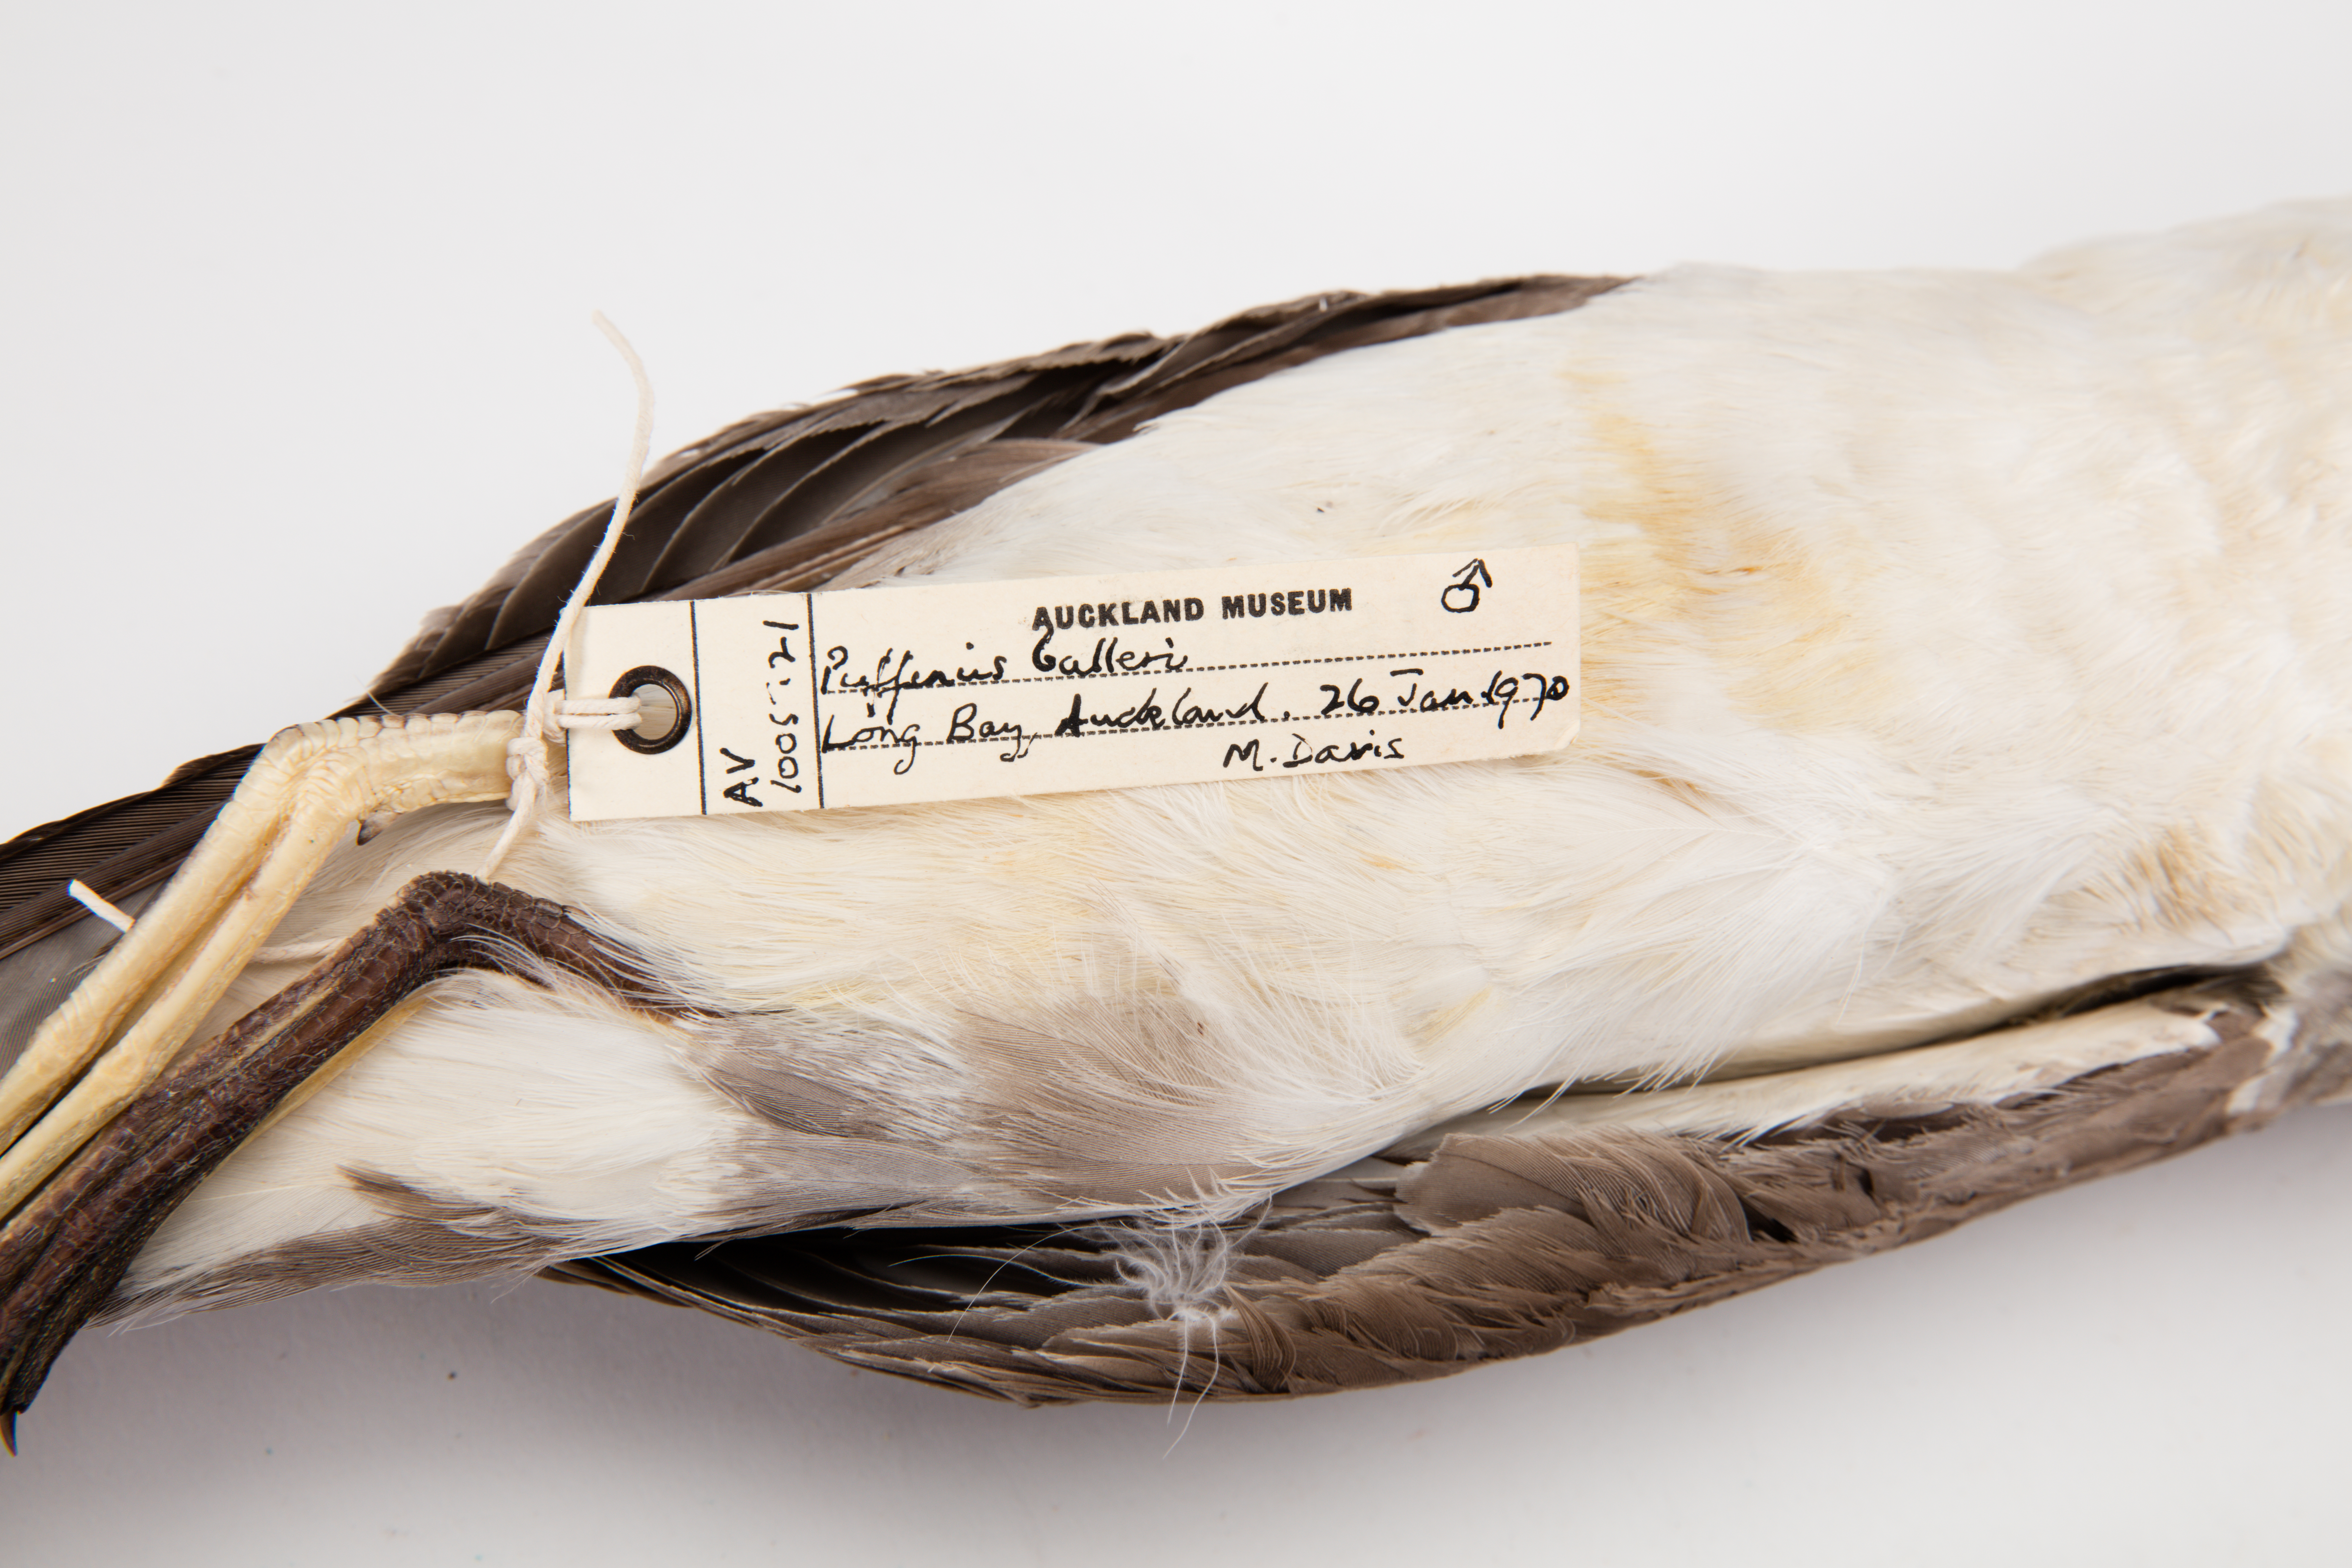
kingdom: Animalia
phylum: Chordata
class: Aves
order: Procellariiformes
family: Procellariidae
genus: Ardenna
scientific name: Ardenna
